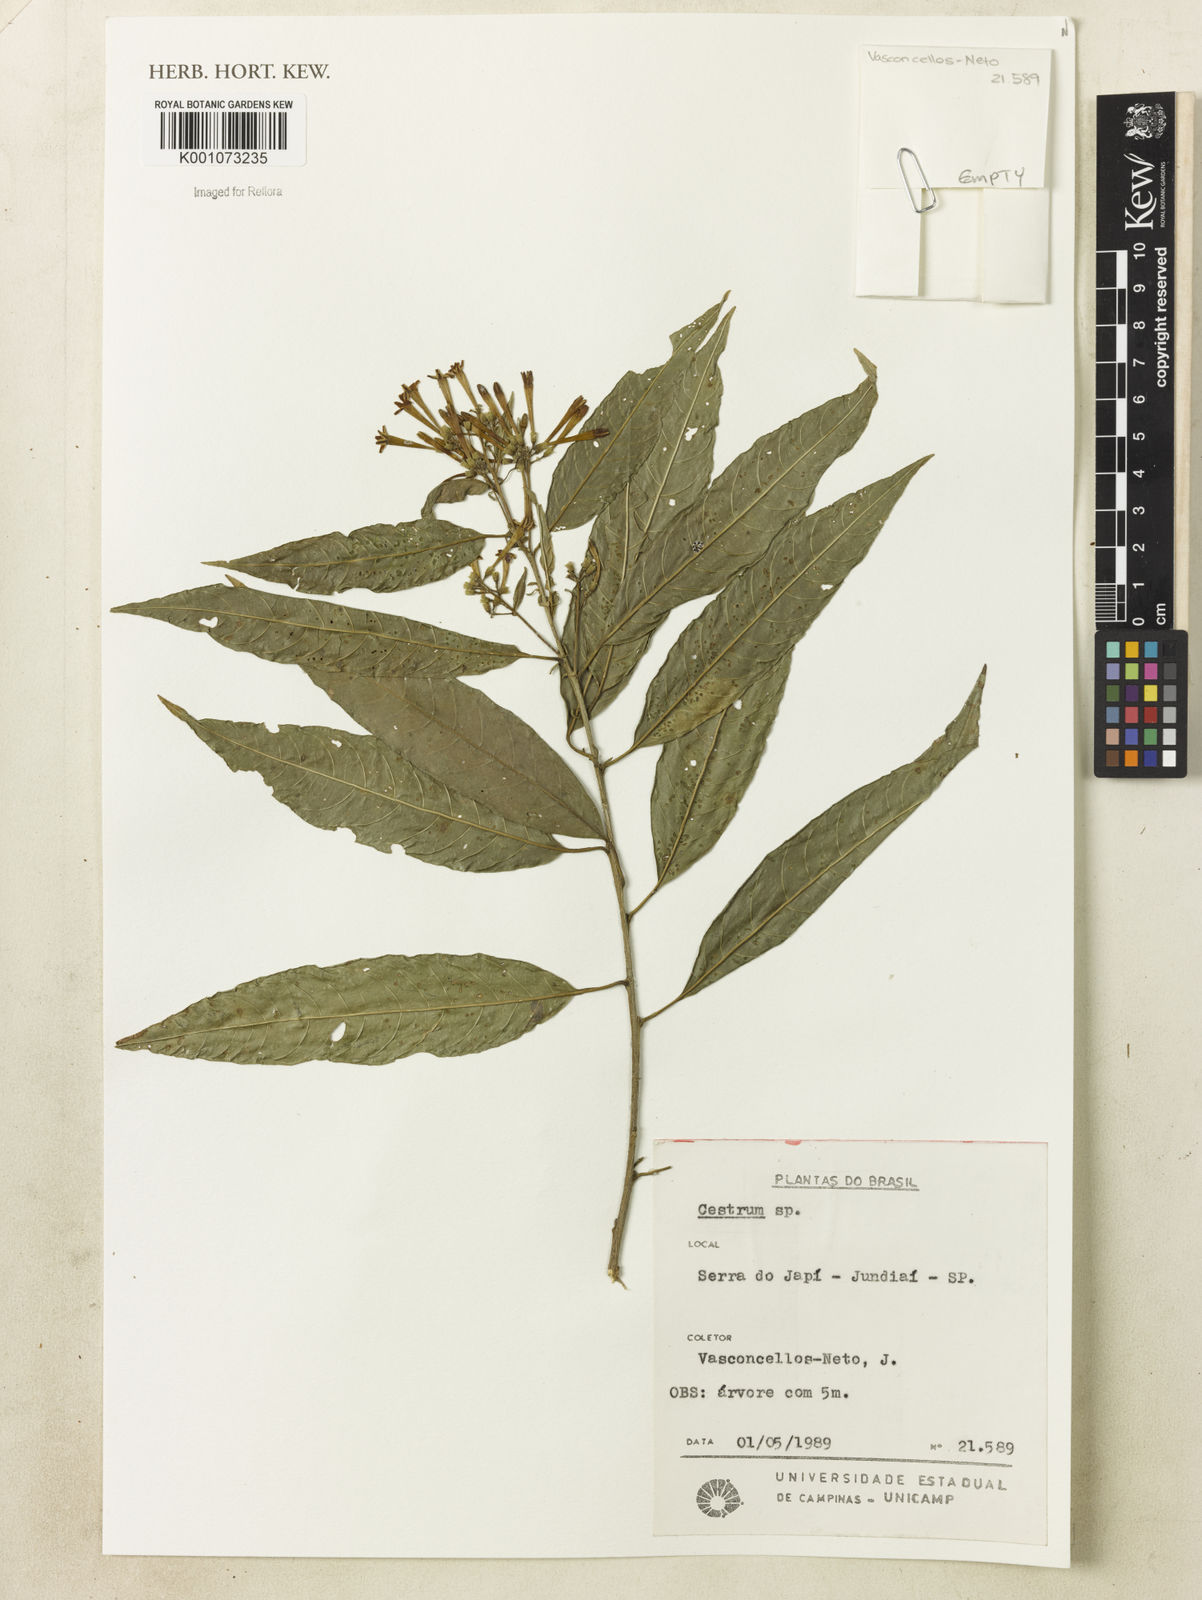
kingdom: Plantae
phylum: Tracheophyta
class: Magnoliopsida
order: Solanales
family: Solanaceae
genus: Cestrum
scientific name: Cestrum
